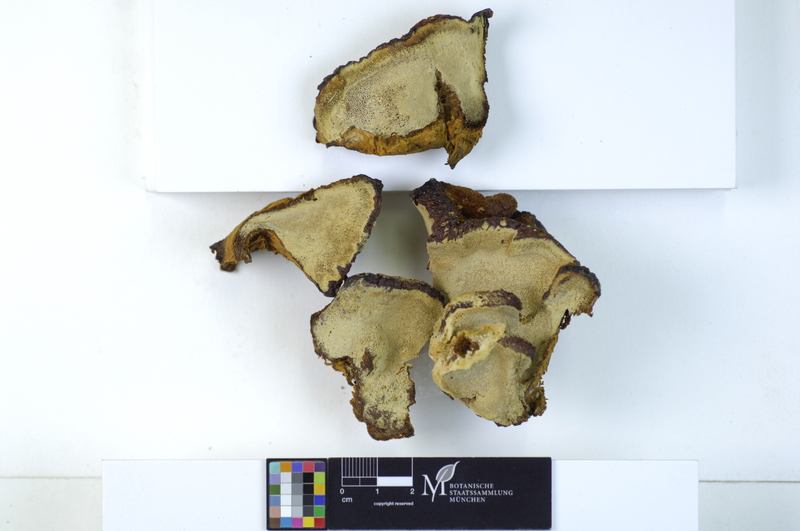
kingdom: Fungi
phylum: Basidiomycota
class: Agaricomycetes
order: Hymenochaetales
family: Hymenochaetaceae
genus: Inonotus
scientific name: Inonotus cuticularis
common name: Clustered bracket
